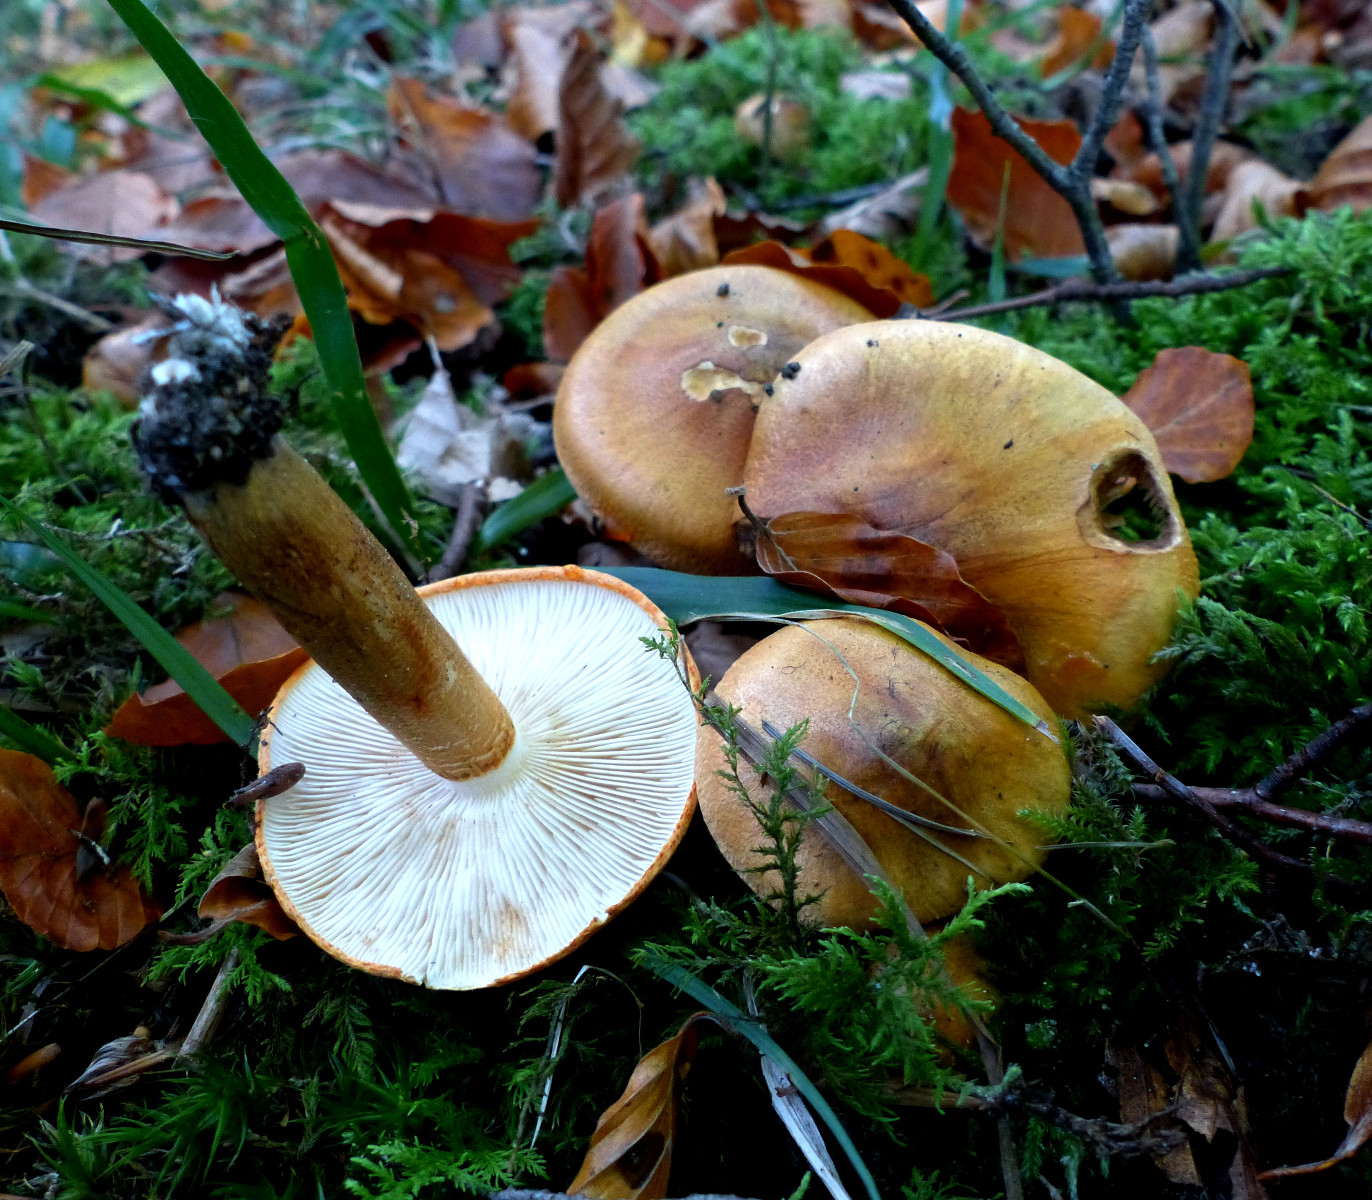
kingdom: Fungi
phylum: Basidiomycota
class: Agaricomycetes
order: Agaricales
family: Tricholomataceae
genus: Tricholoma
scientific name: Tricholoma aurantium
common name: orangegul ridderhat
